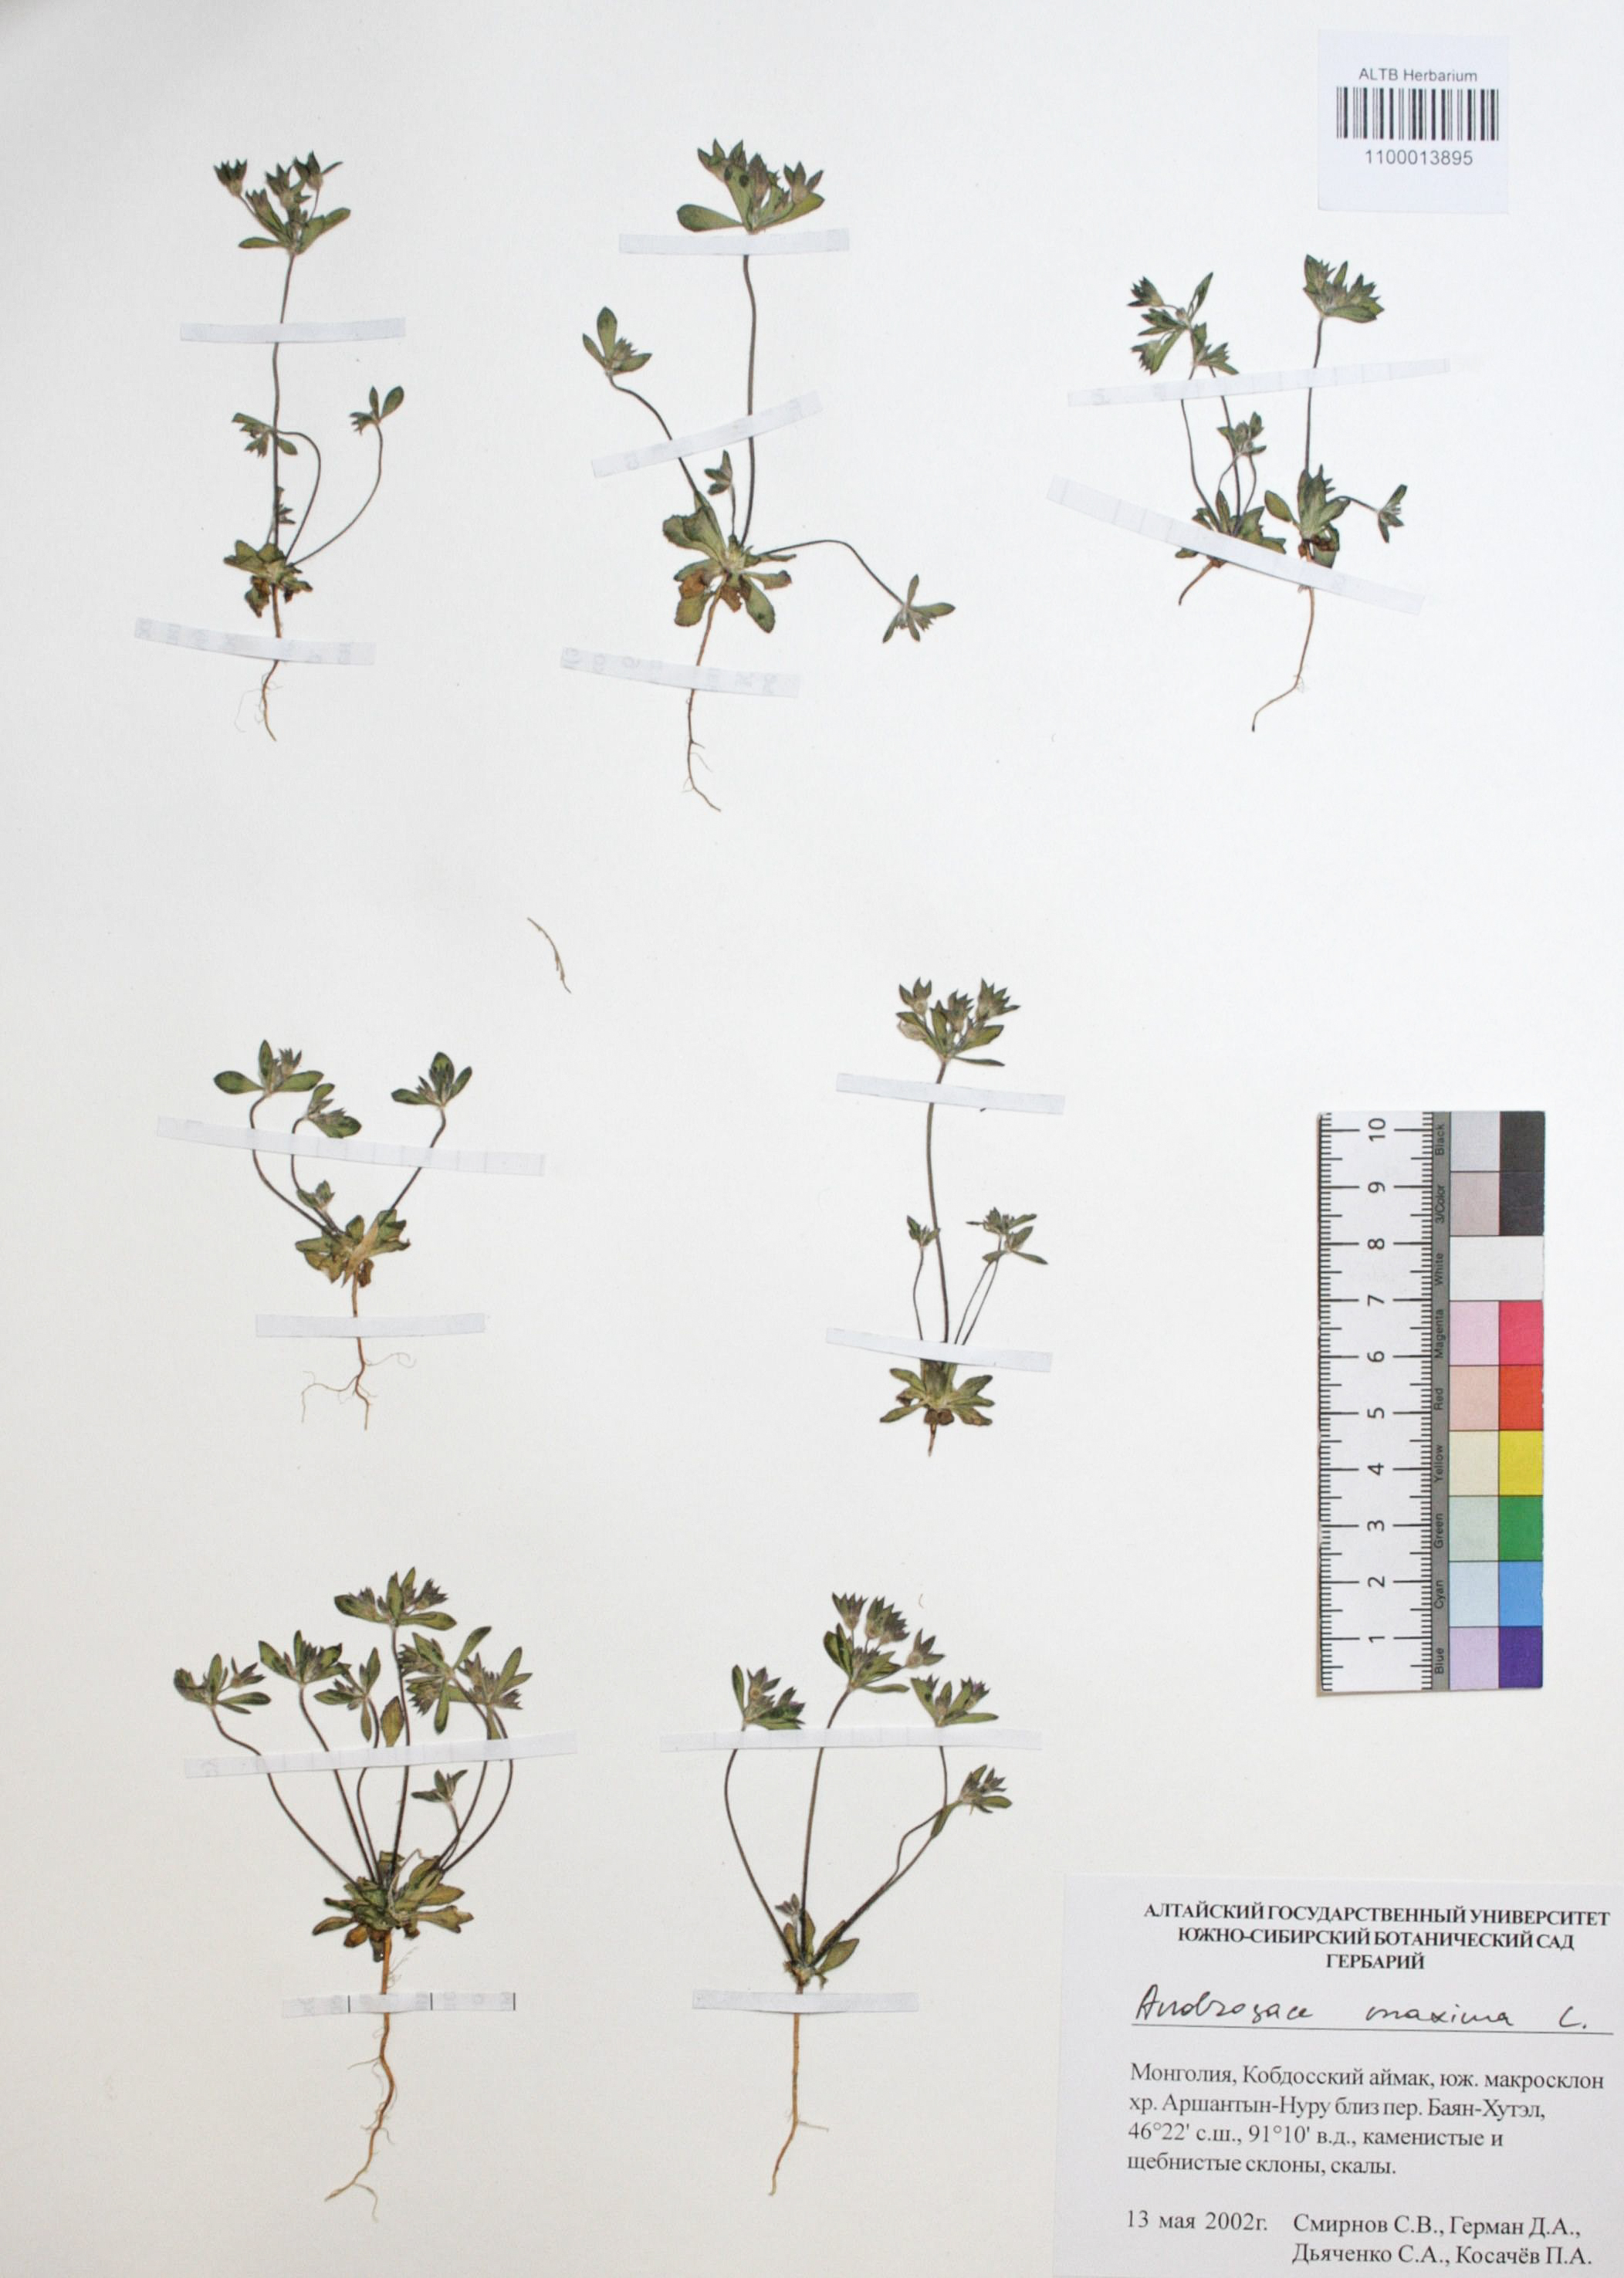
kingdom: Plantae
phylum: Tracheophyta
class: Magnoliopsida
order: Ericales
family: Primulaceae
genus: Androsace
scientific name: Androsace maxima
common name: Annual androsace
